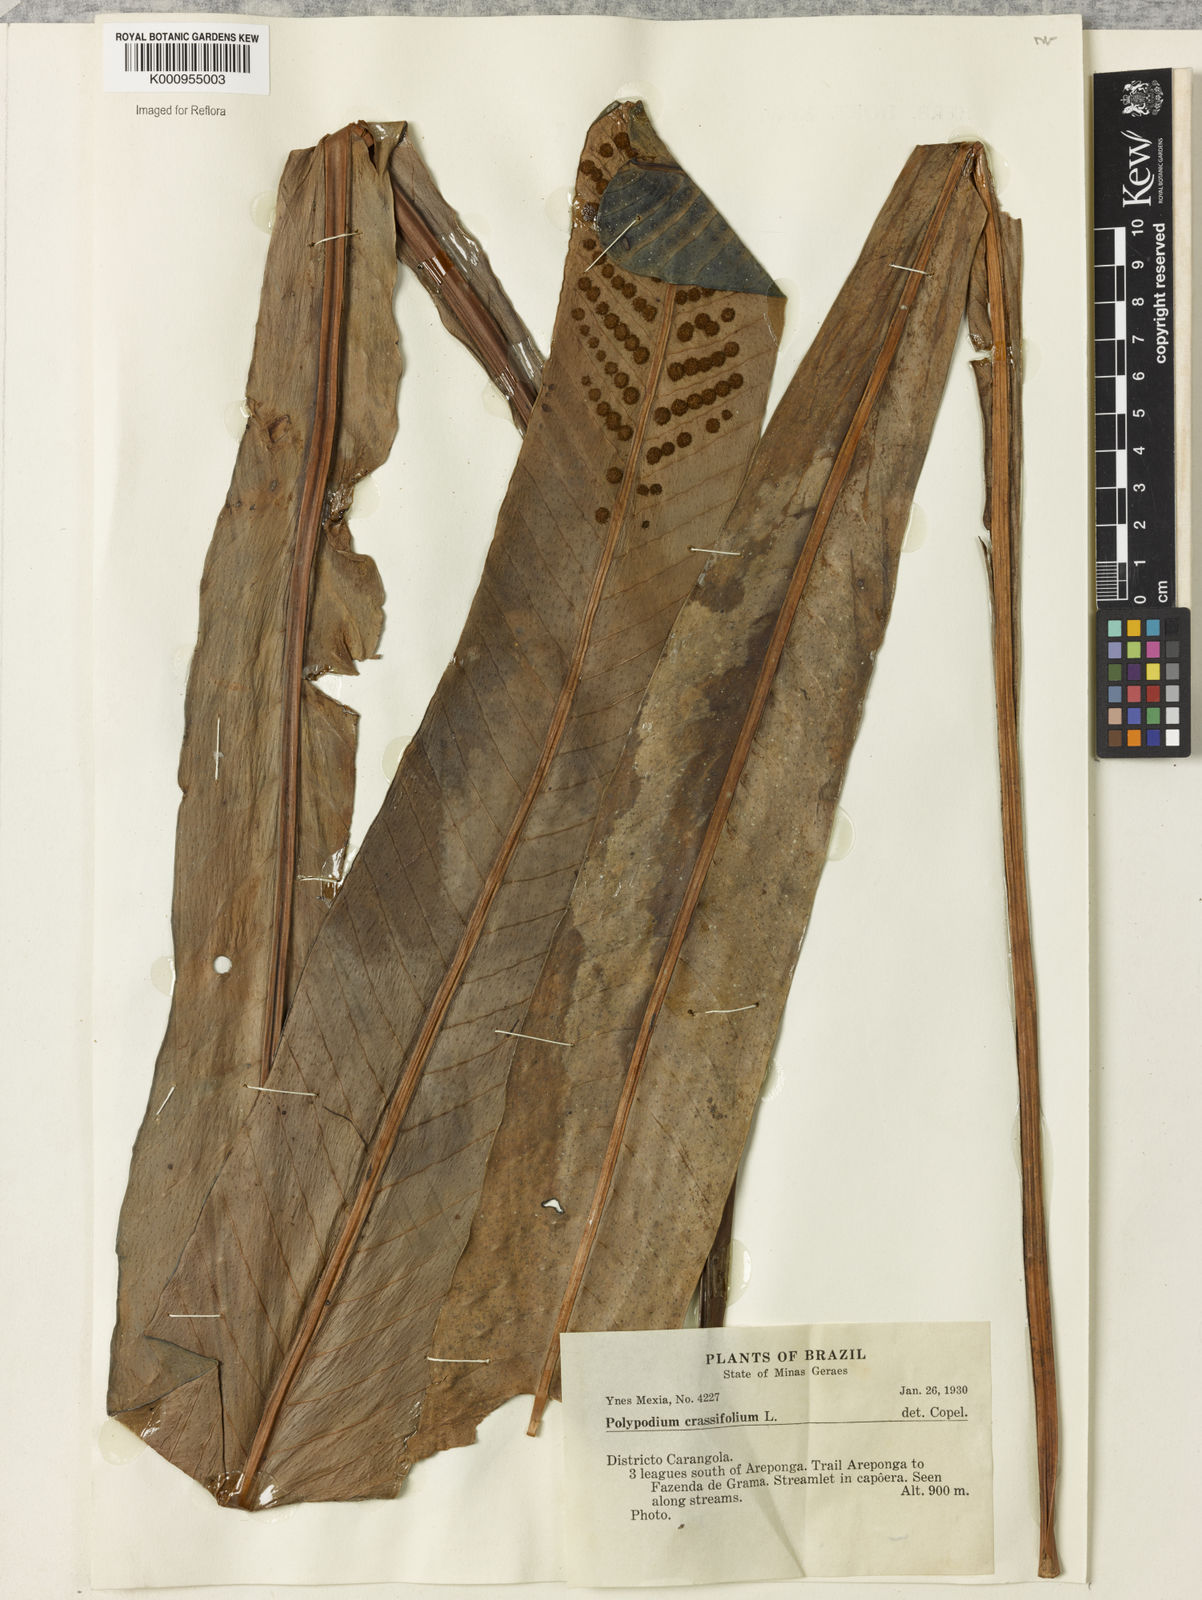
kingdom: Plantae
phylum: Tracheophyta
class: Polypodiopsida
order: Polypodiales
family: Polypodiaceae
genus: Niphidium
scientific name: Niphidium crassifolium
